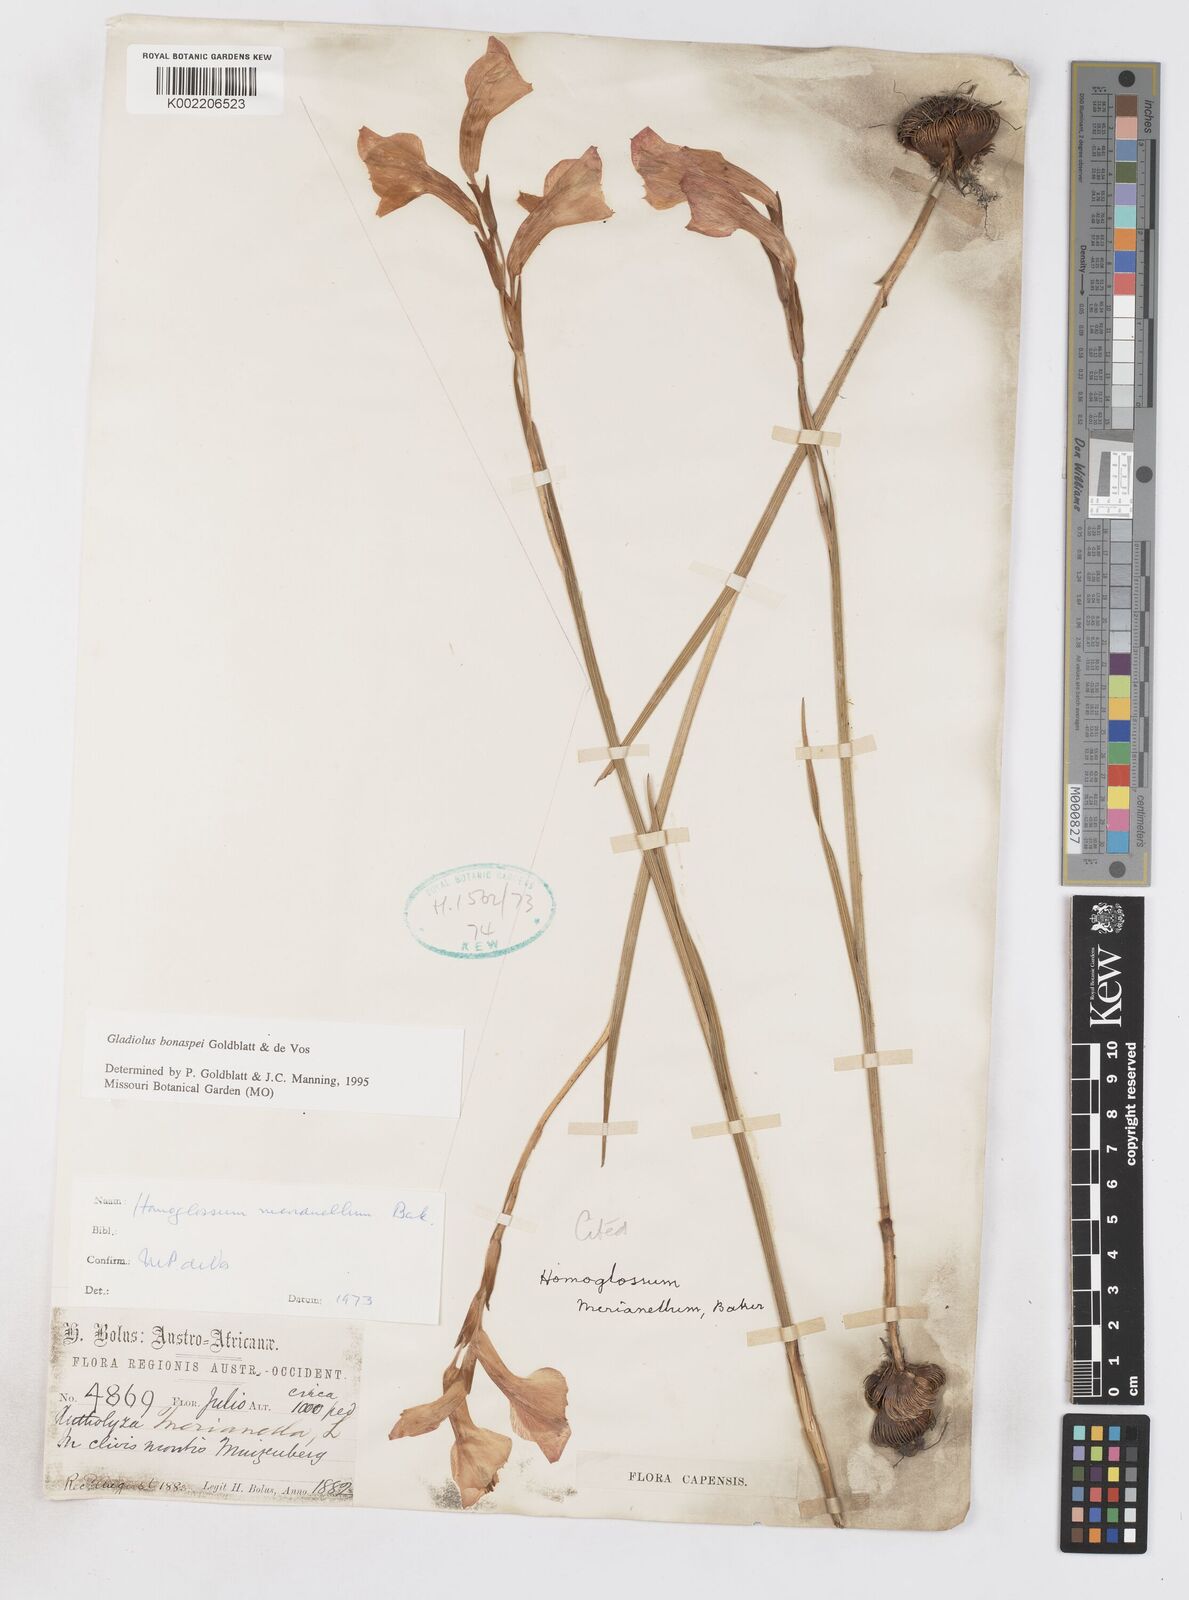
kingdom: Plantae
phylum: Tracheophyta
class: Liliopsida
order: Asparagales
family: Iridaceae
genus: Gladiolus
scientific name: Gladiolus merianellus
